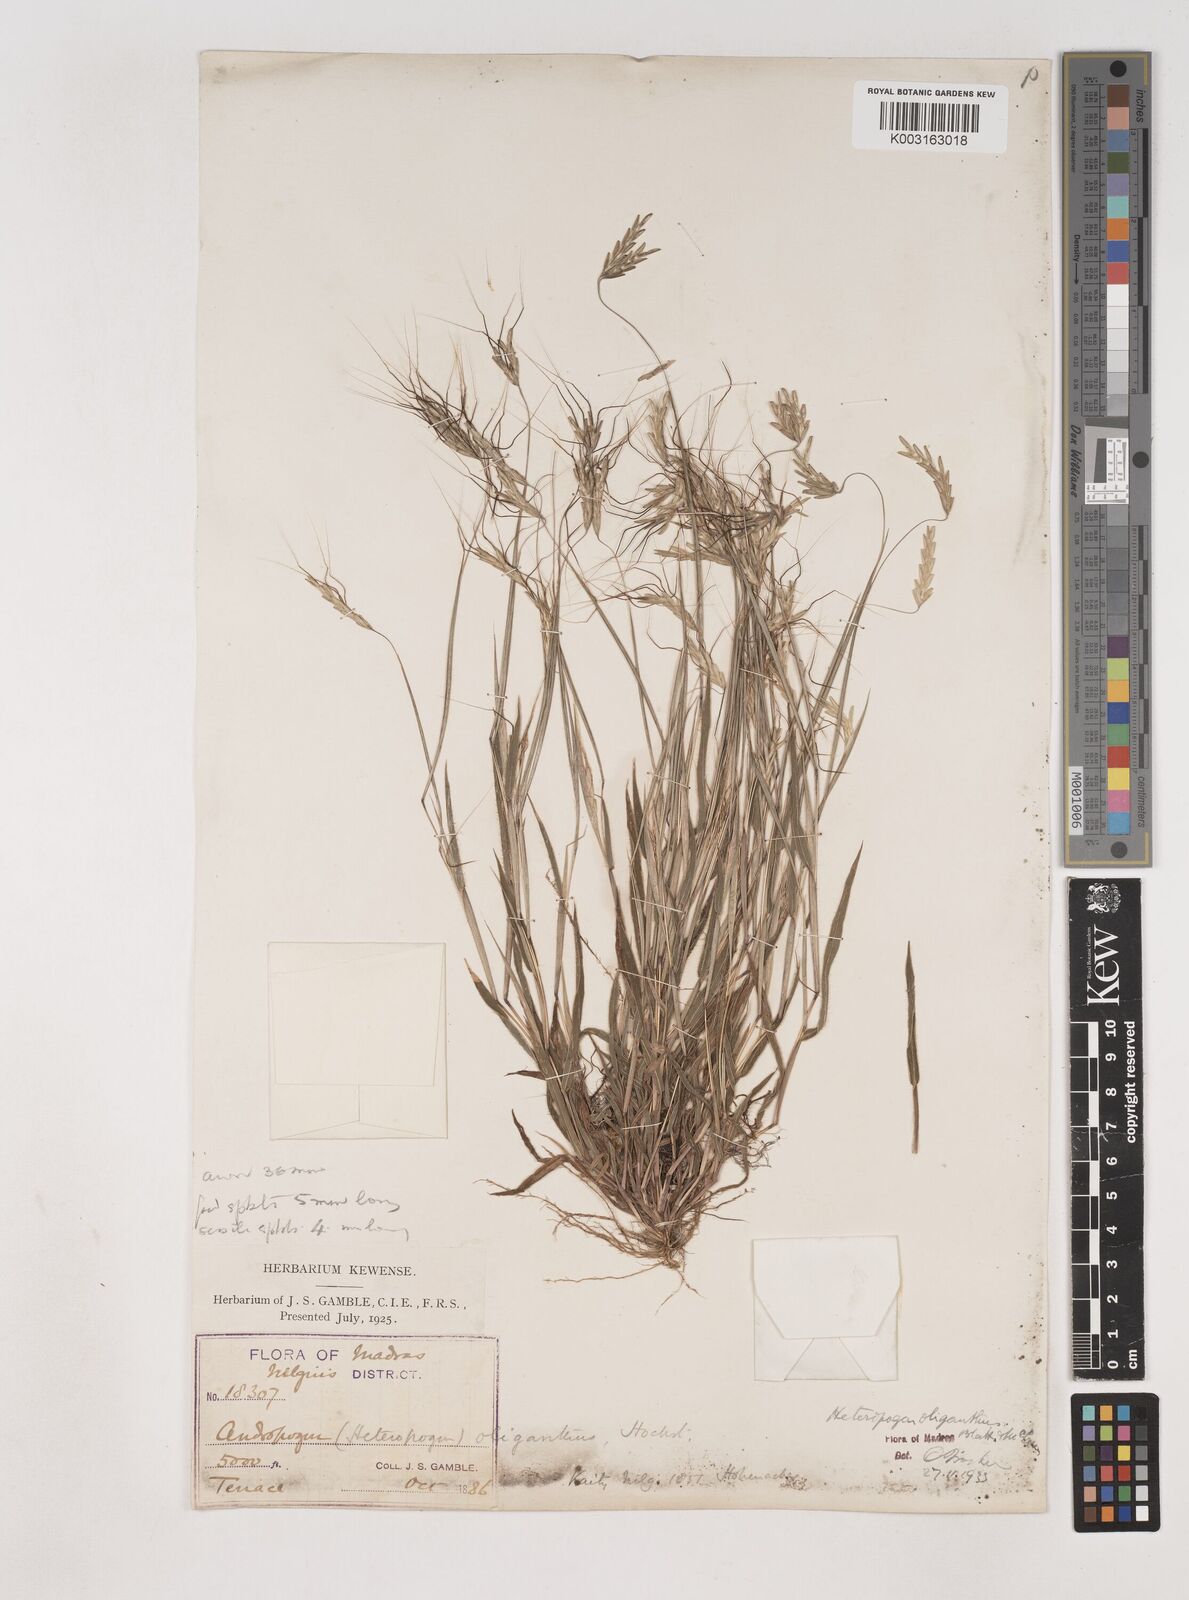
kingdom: Plantae
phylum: Tracheophyta
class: Liliopsida
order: Poales
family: Poaceae
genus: Euclasta
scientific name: Euclasta oligantha
